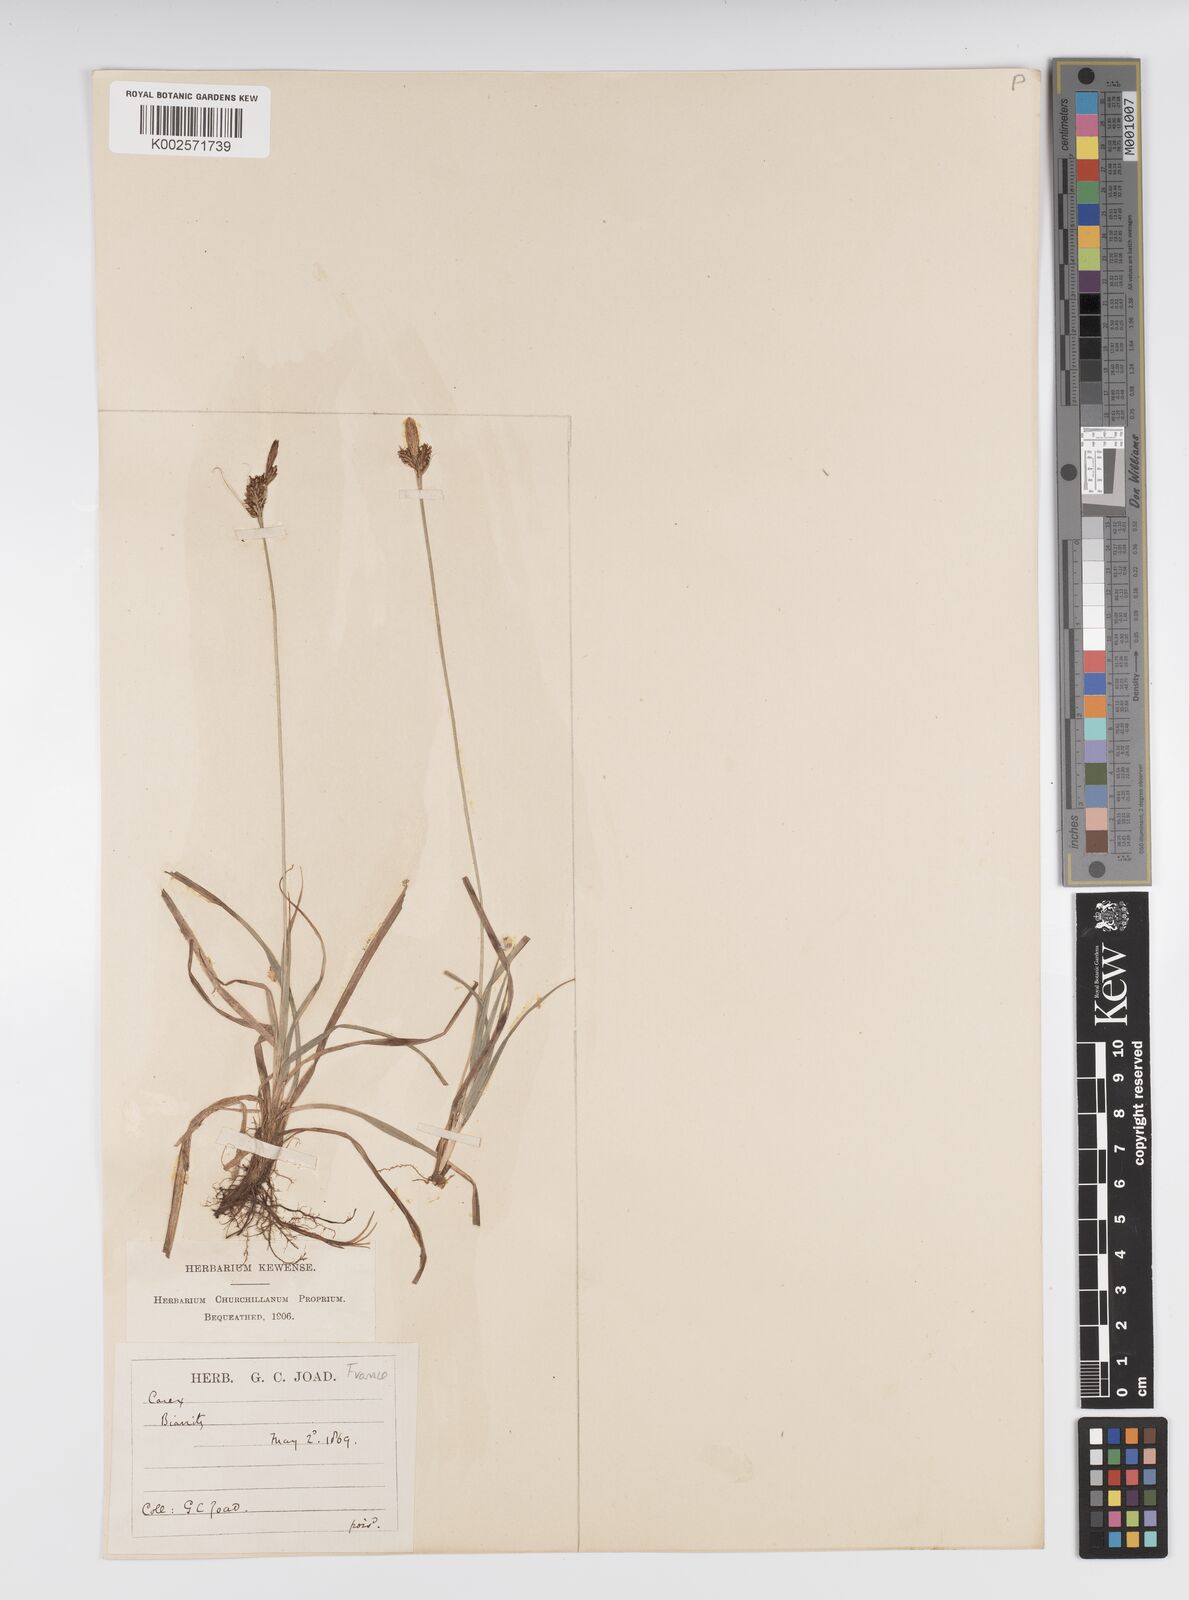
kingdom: Plantae
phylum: Tracheophyta
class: Liliopsida
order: Poales
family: Cyperaceae
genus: Carex
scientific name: Carex caryophyllea
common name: Spring sedge
